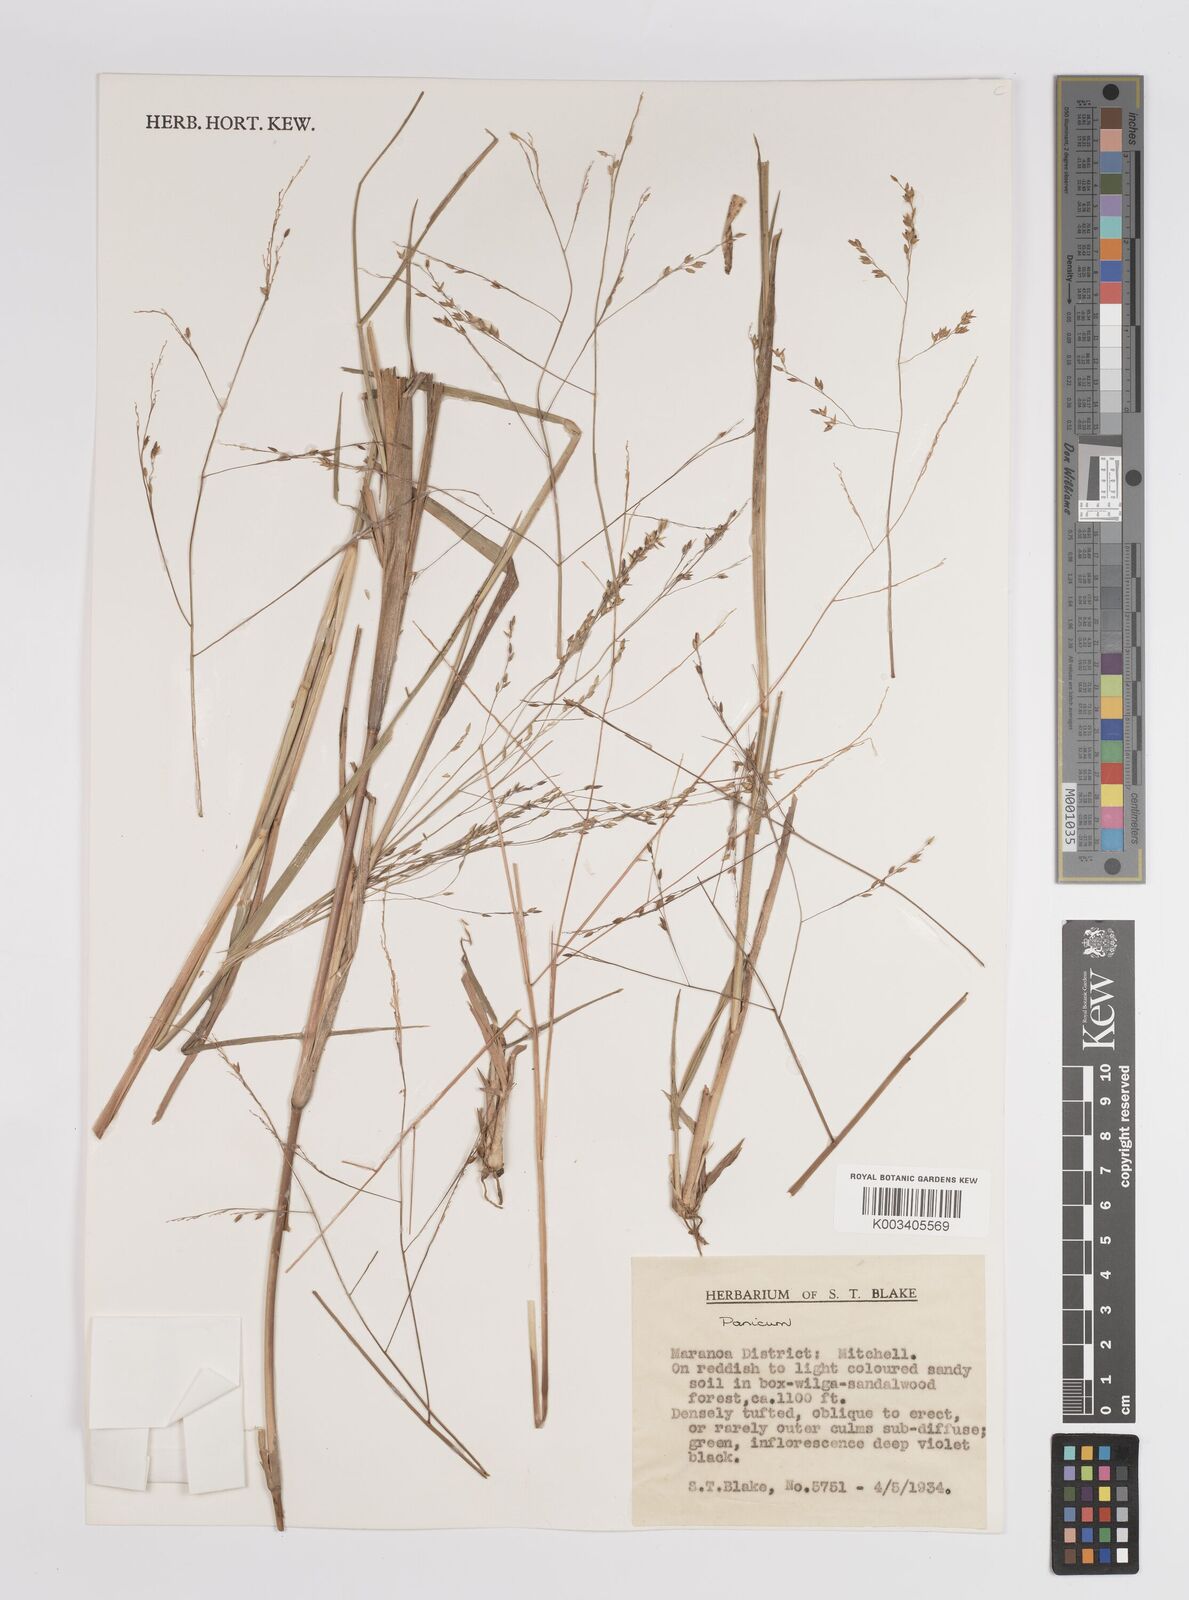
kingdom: Plantae
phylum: Tracheophyta
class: Liliopsida
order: Poales
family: Poaceae
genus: Panicum
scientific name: Panicum
